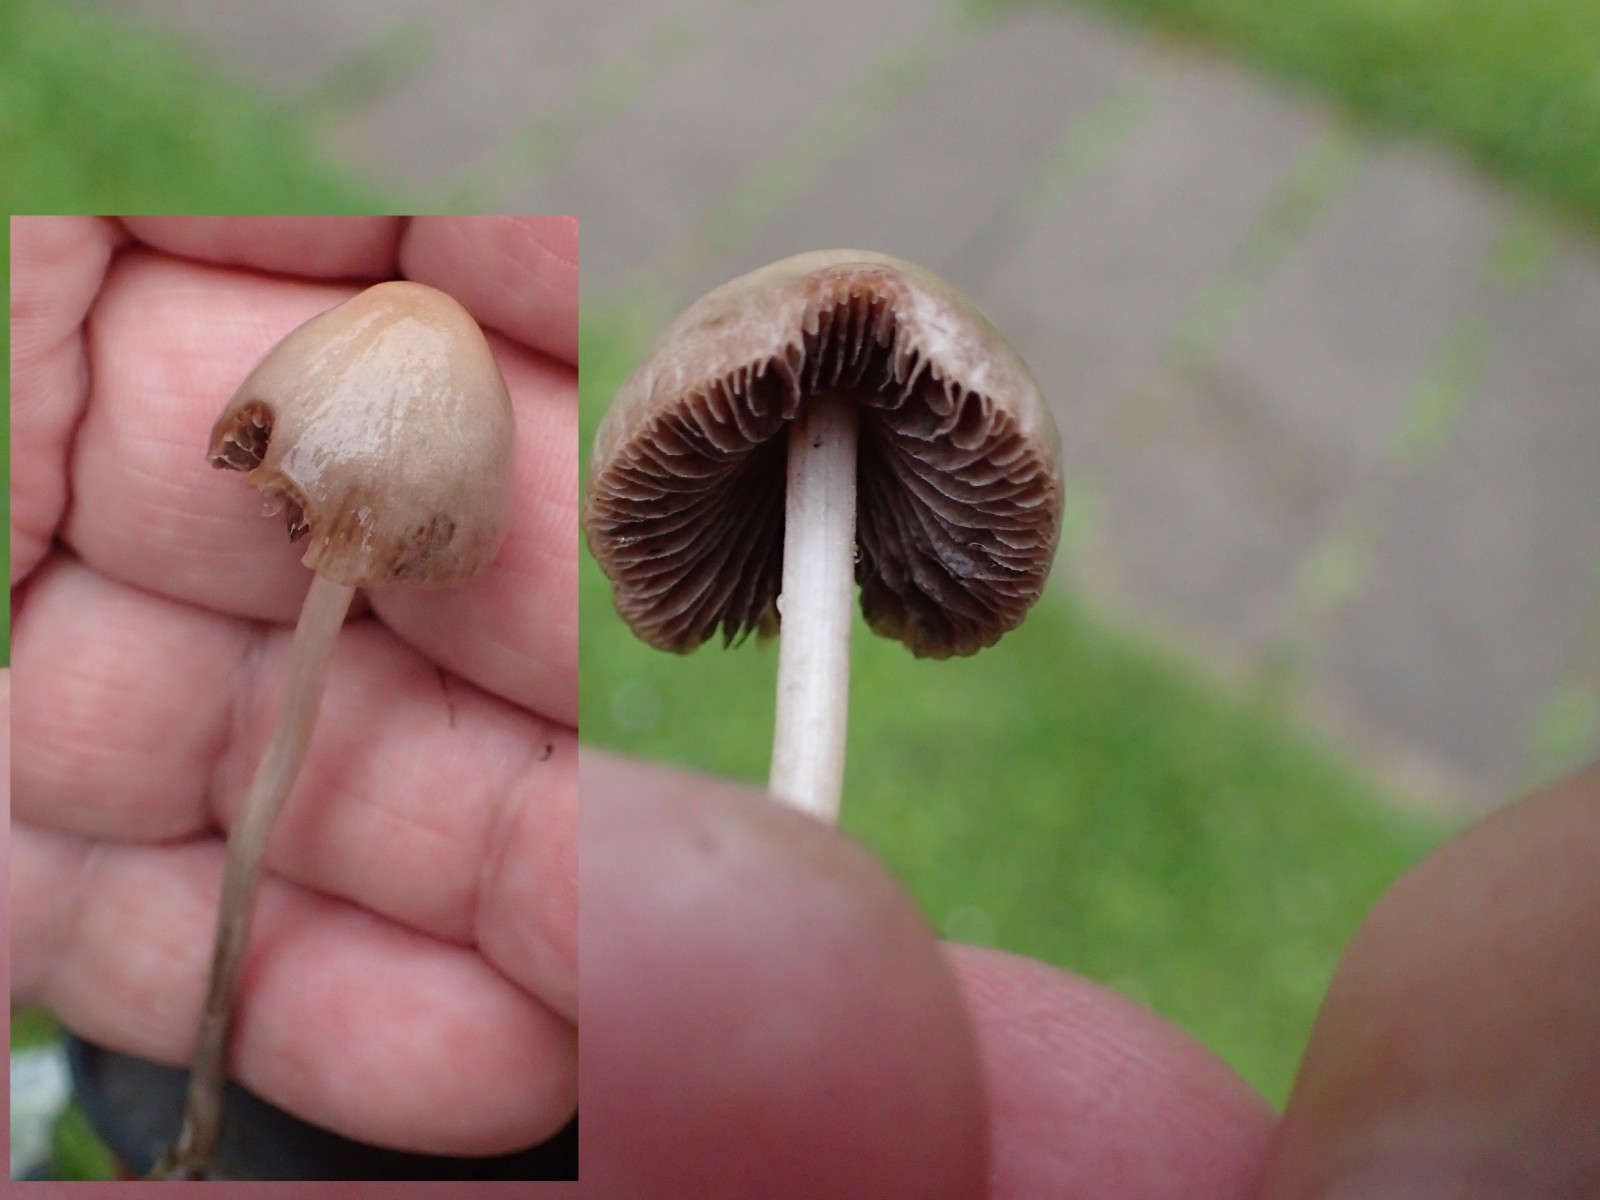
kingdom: Fungi
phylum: Basidiomycota
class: Agaricomycetes
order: Agaricales
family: Bolbitiaceae
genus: Panaeolina
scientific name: Panaeolina foenisecii
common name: høslætsvamp
